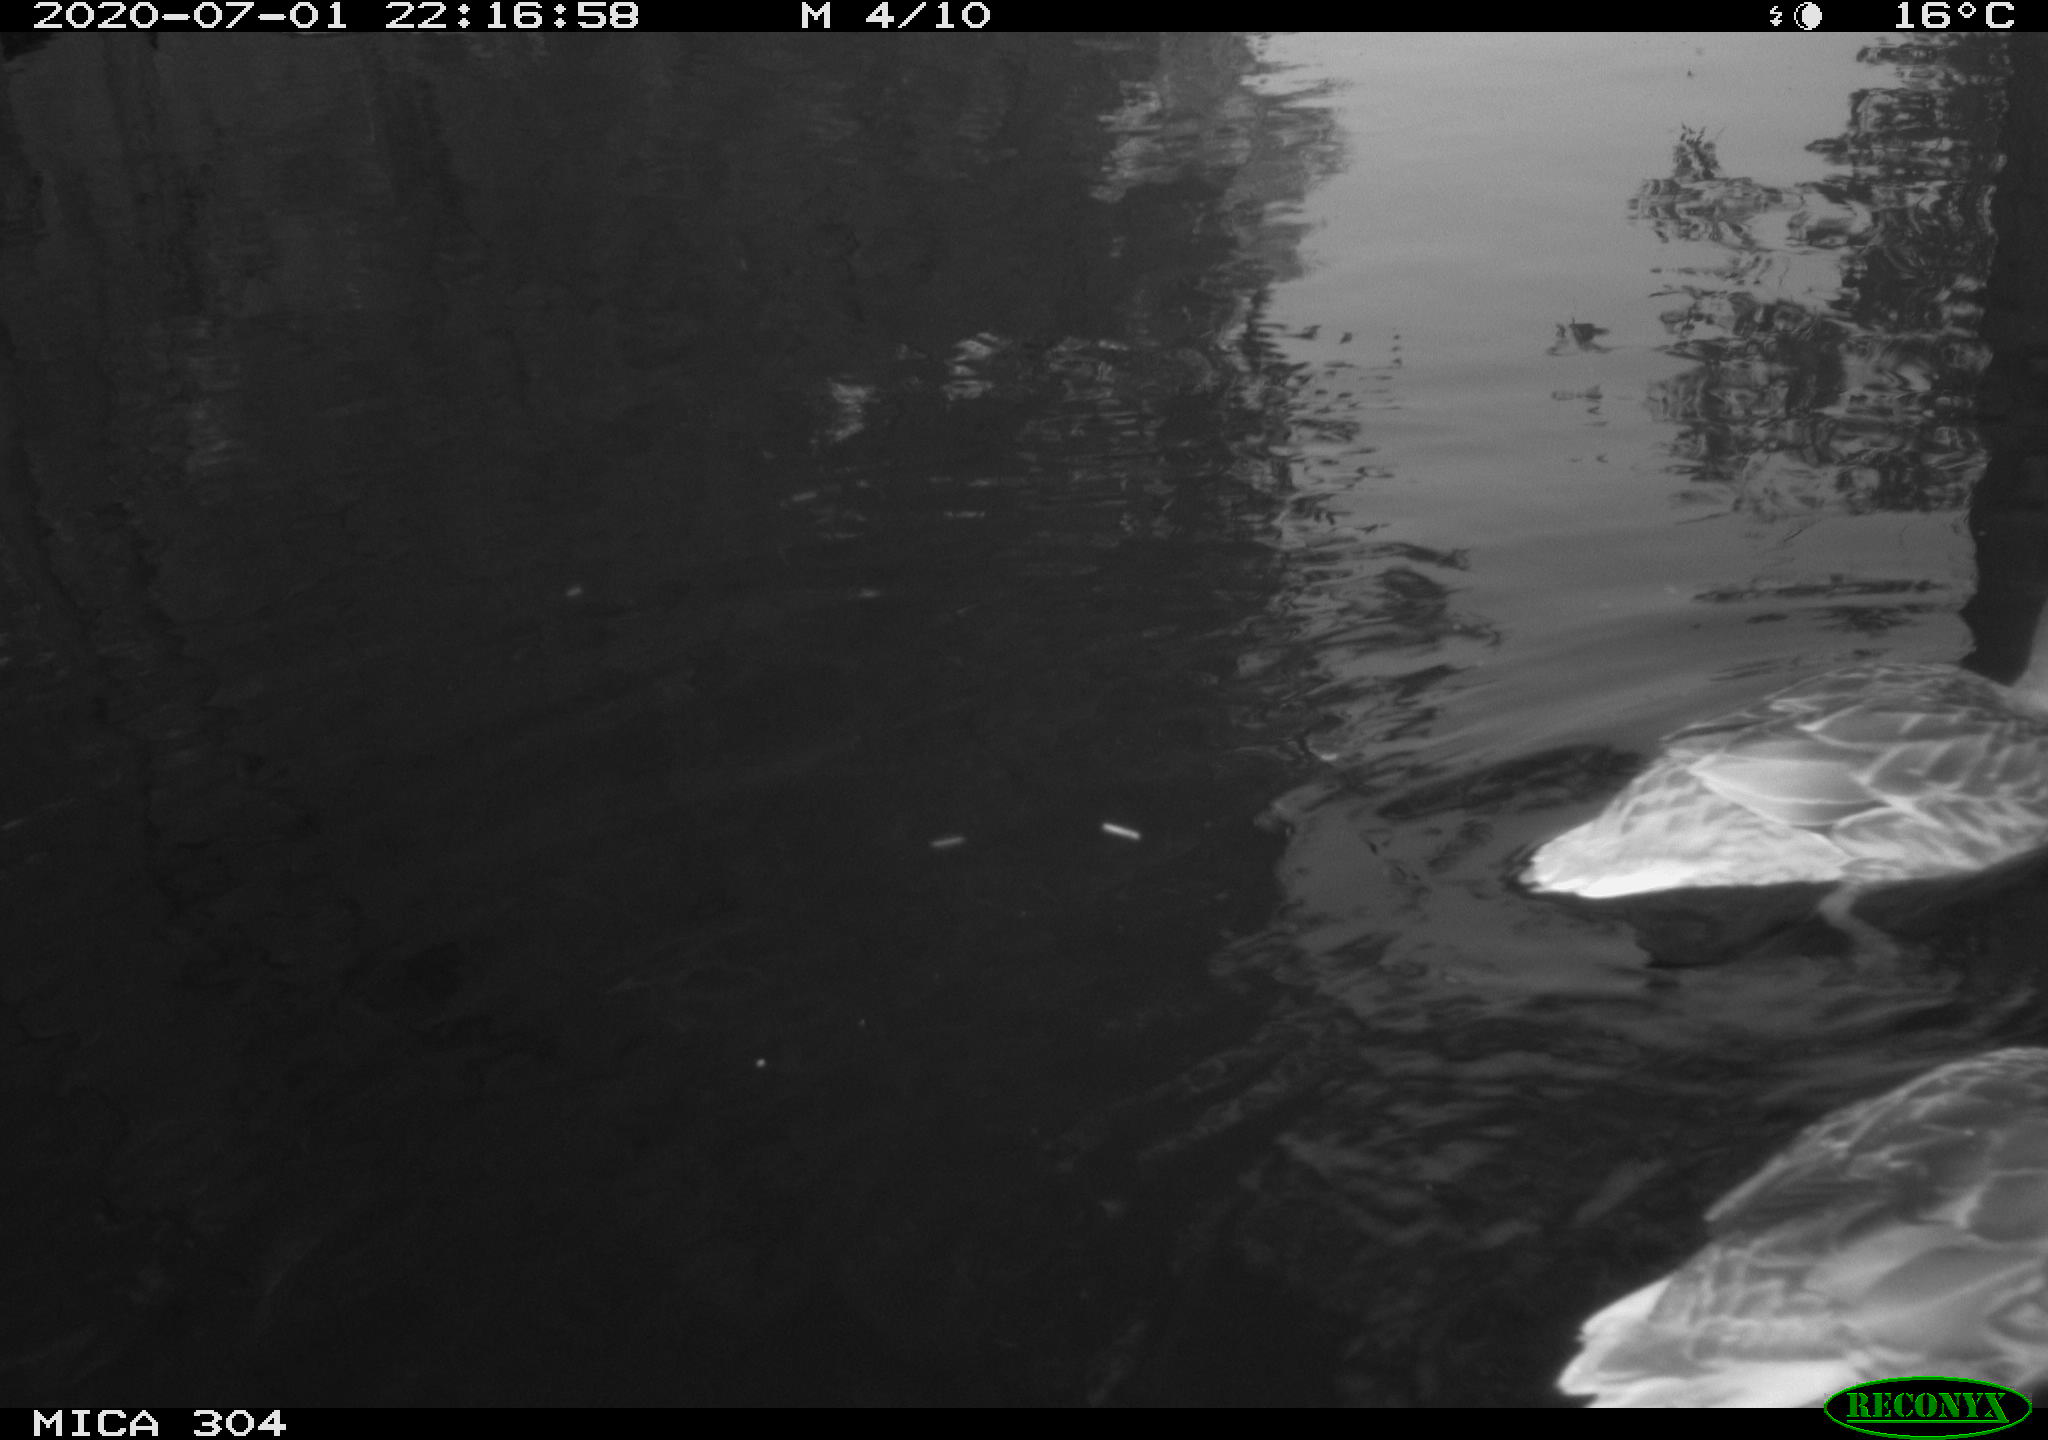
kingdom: Animalia
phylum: Chordata
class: Aves
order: Anseriformes
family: Anatidae
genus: Anas
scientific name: Anas platyrhynchos
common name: Mallard
